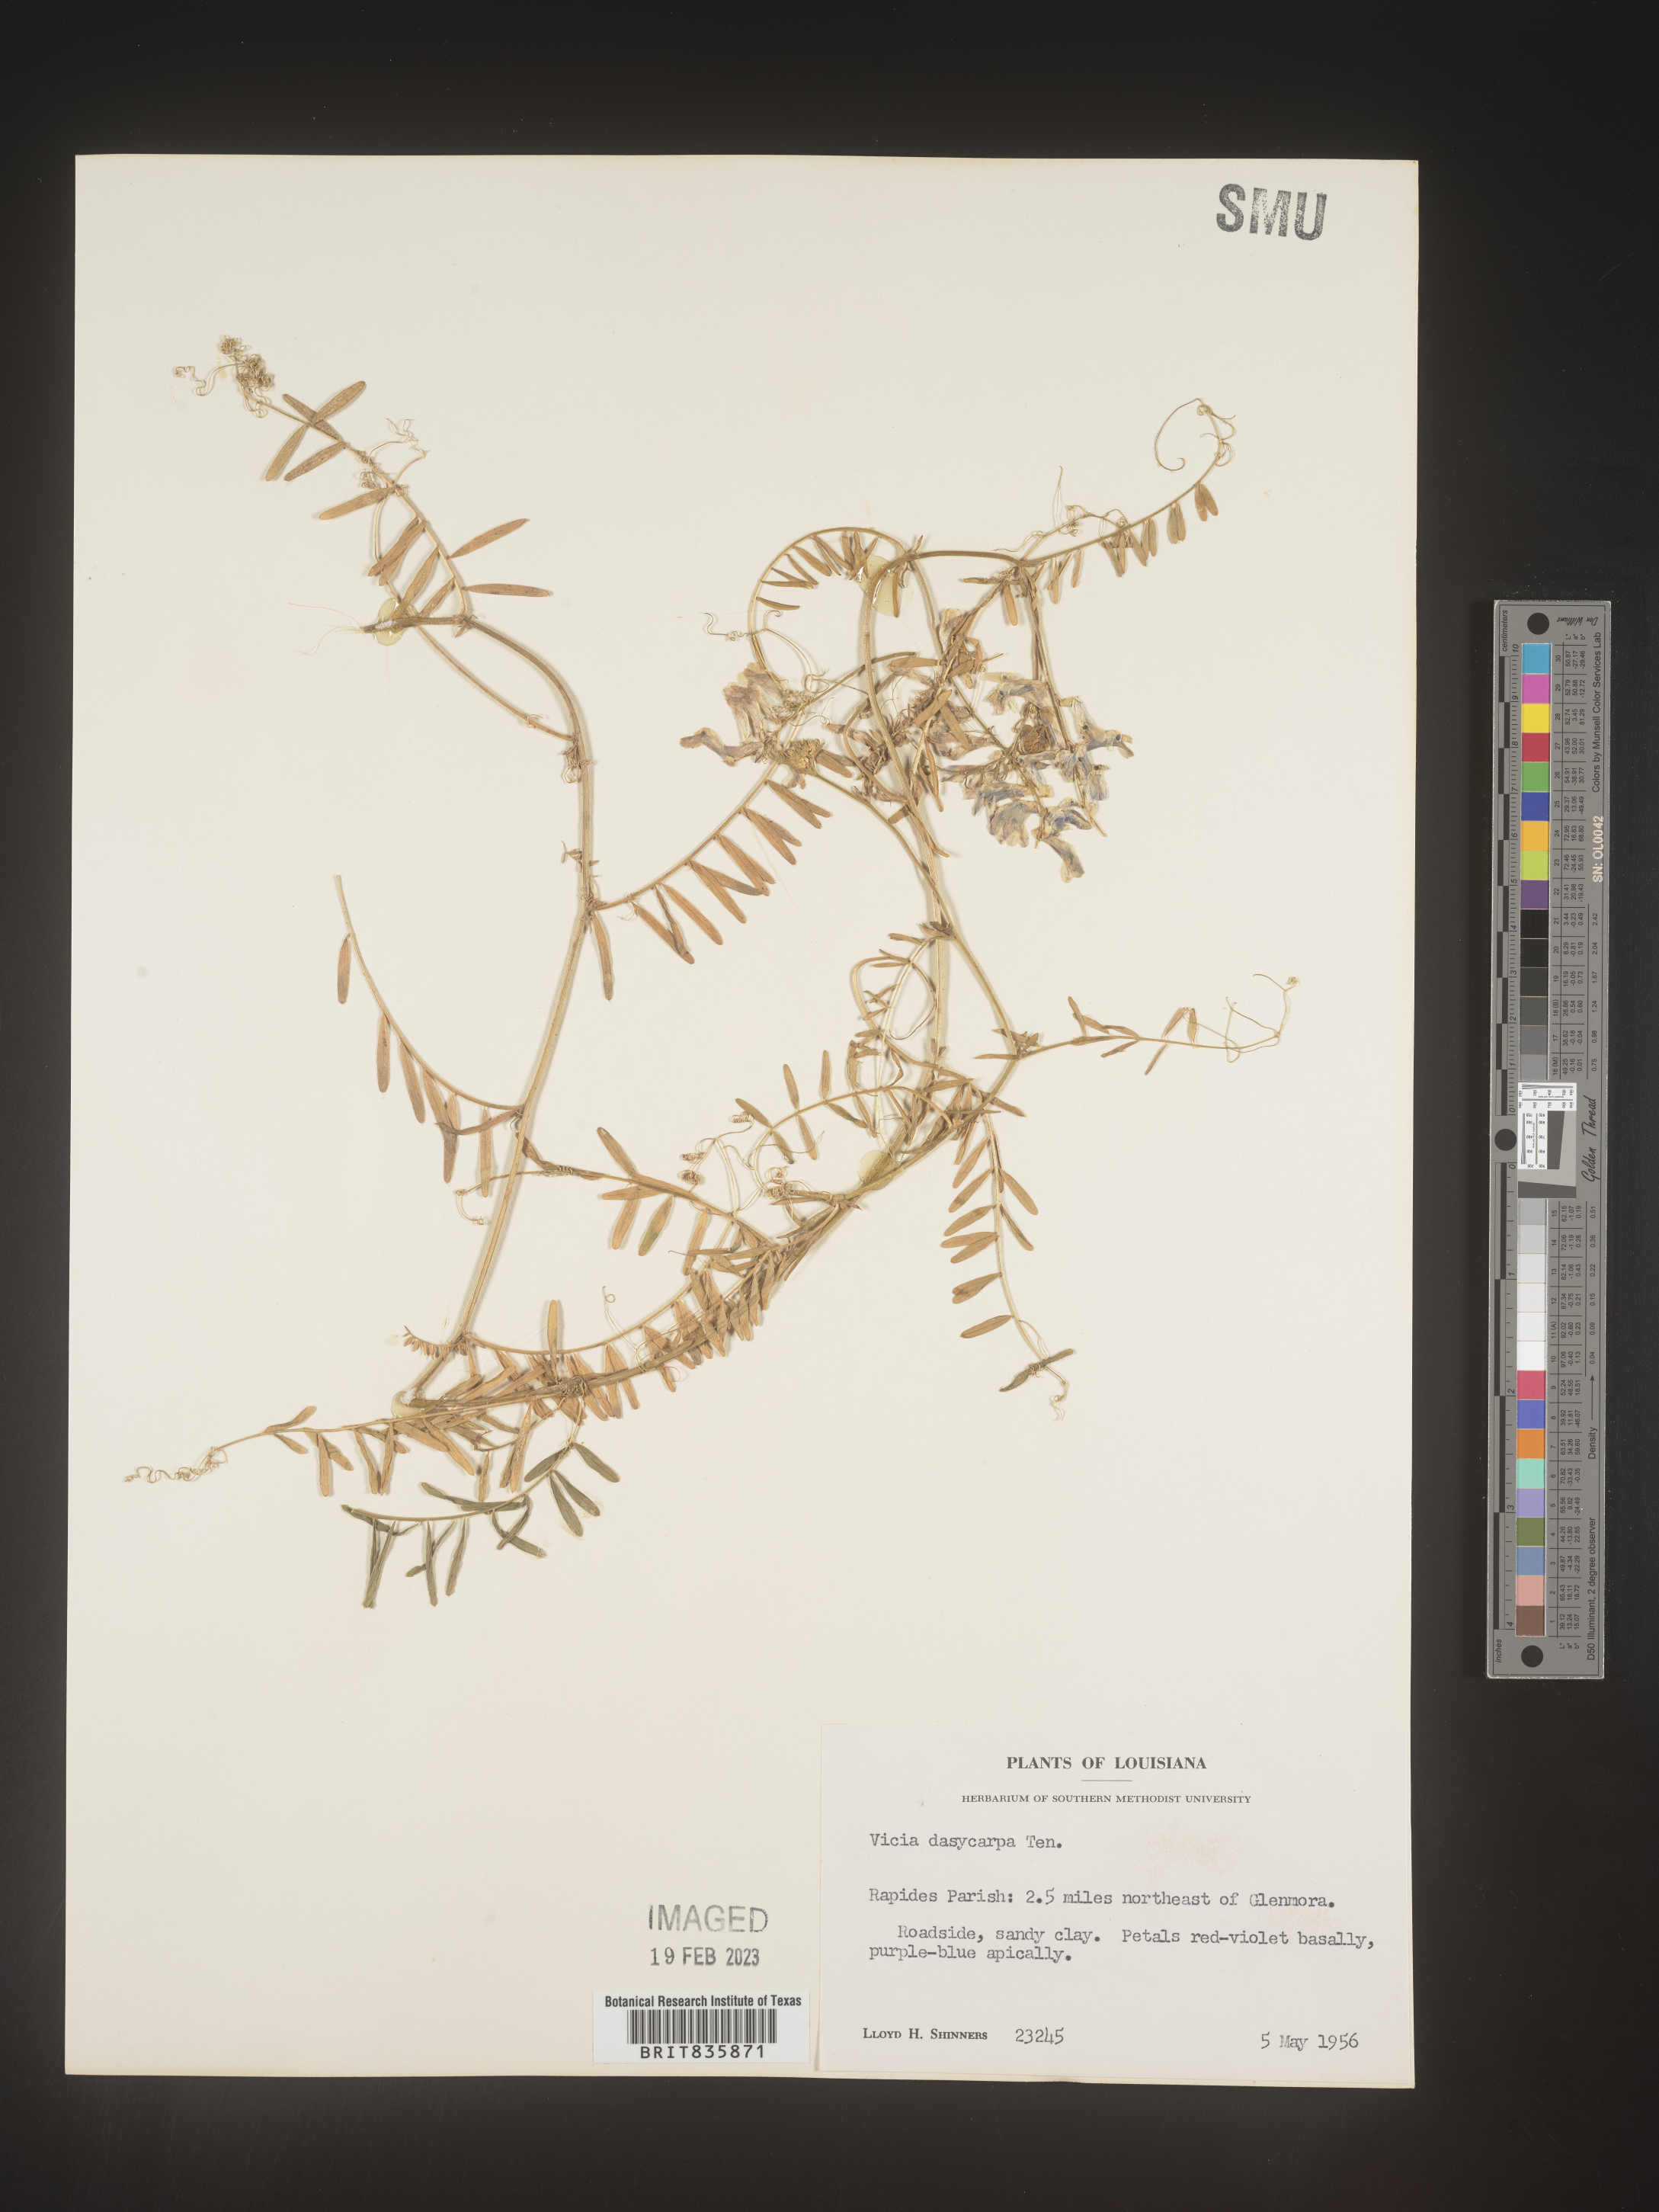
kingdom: Plantae
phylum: Tracheophyta
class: Magnoliopsida
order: Fabales
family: Fabaceae
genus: Vicia
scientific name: Vicia villosa
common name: Fodder vetch
